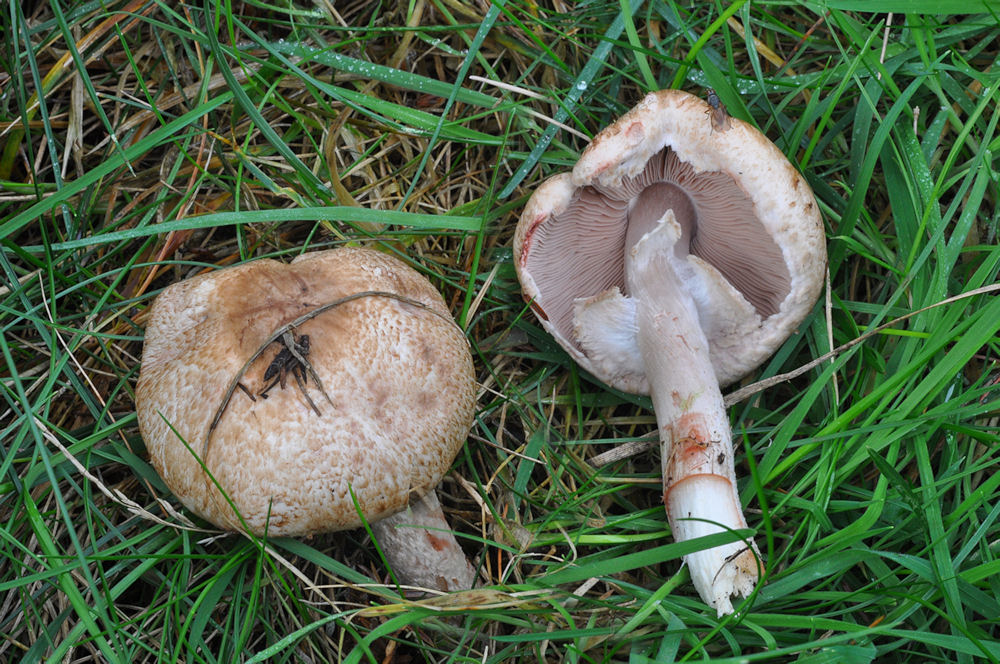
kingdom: Fungi
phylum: Basidiomycota
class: Agaricomycetes
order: Agaricales
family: Agaricaceae
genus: Agaricus
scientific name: Agaricus sylvaticus
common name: lille blod-champignon
